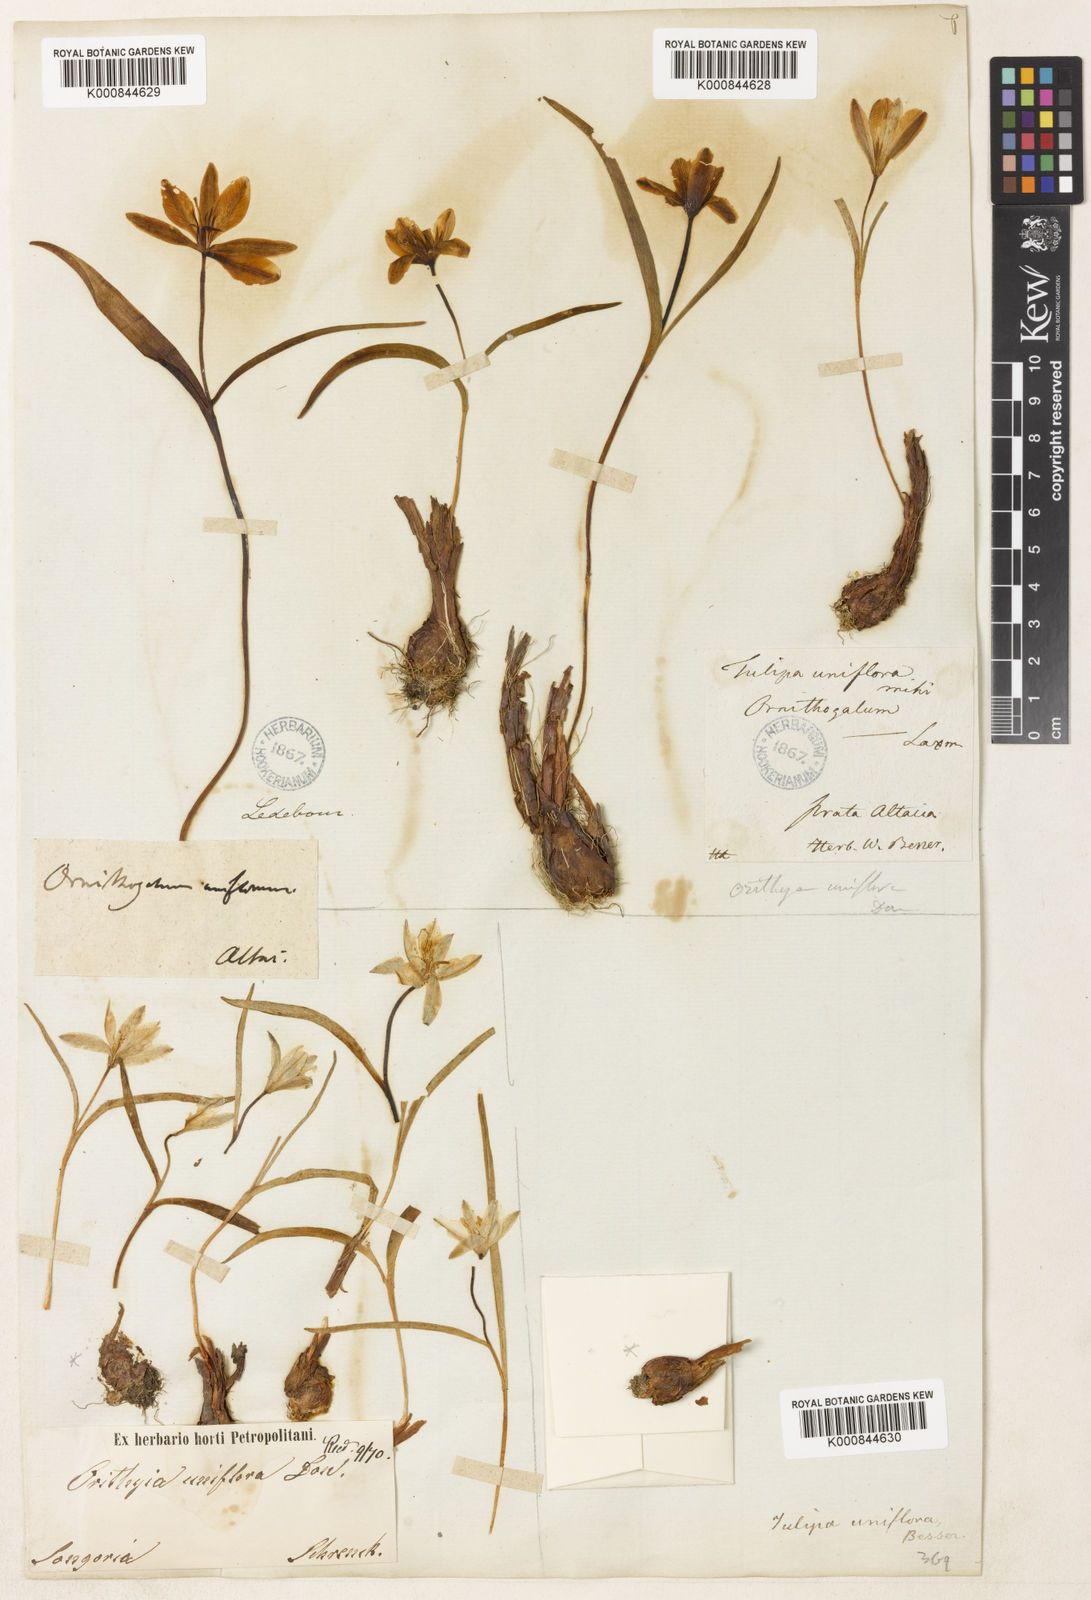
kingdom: Plantae
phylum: Tracheophyta
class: Liliopsida
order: Liliales
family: Liliaceae
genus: Tulipa
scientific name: Tulipa uniflora
